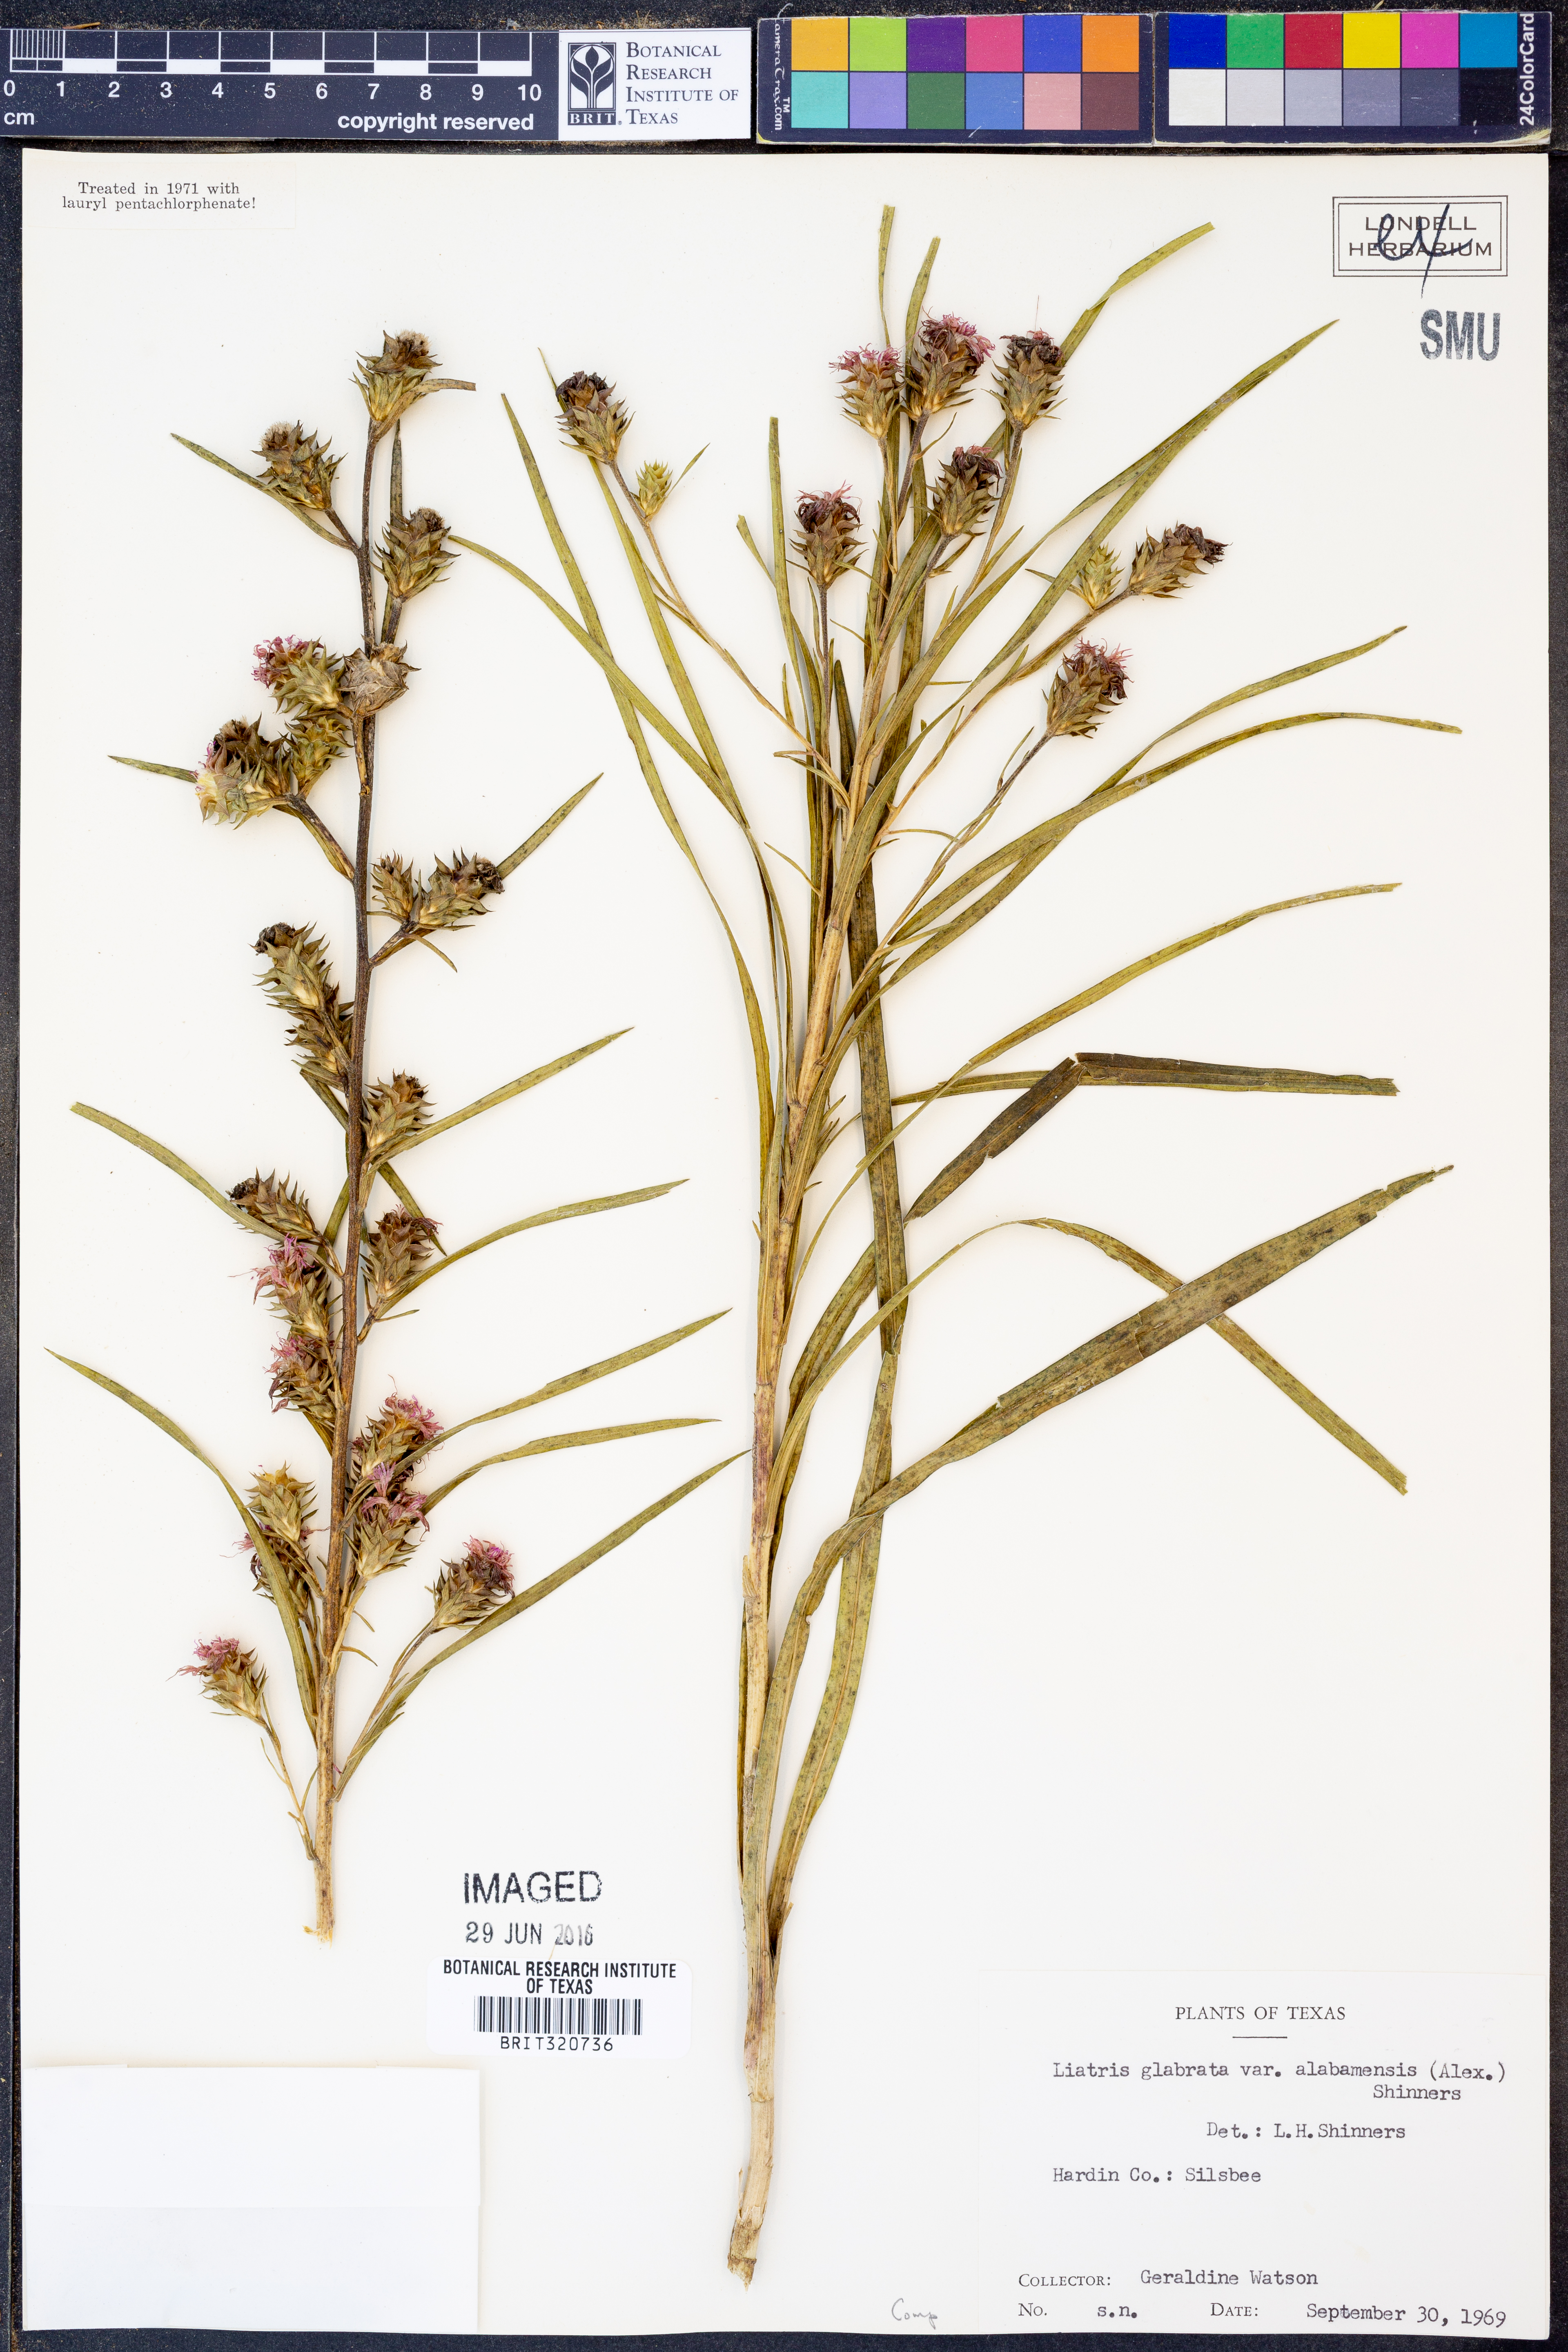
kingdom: Plantae
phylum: Tracheophyta
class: Magnoliopsida
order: Asterales
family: Asteraceae
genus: Liatris
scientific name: Liatris squarrosa
